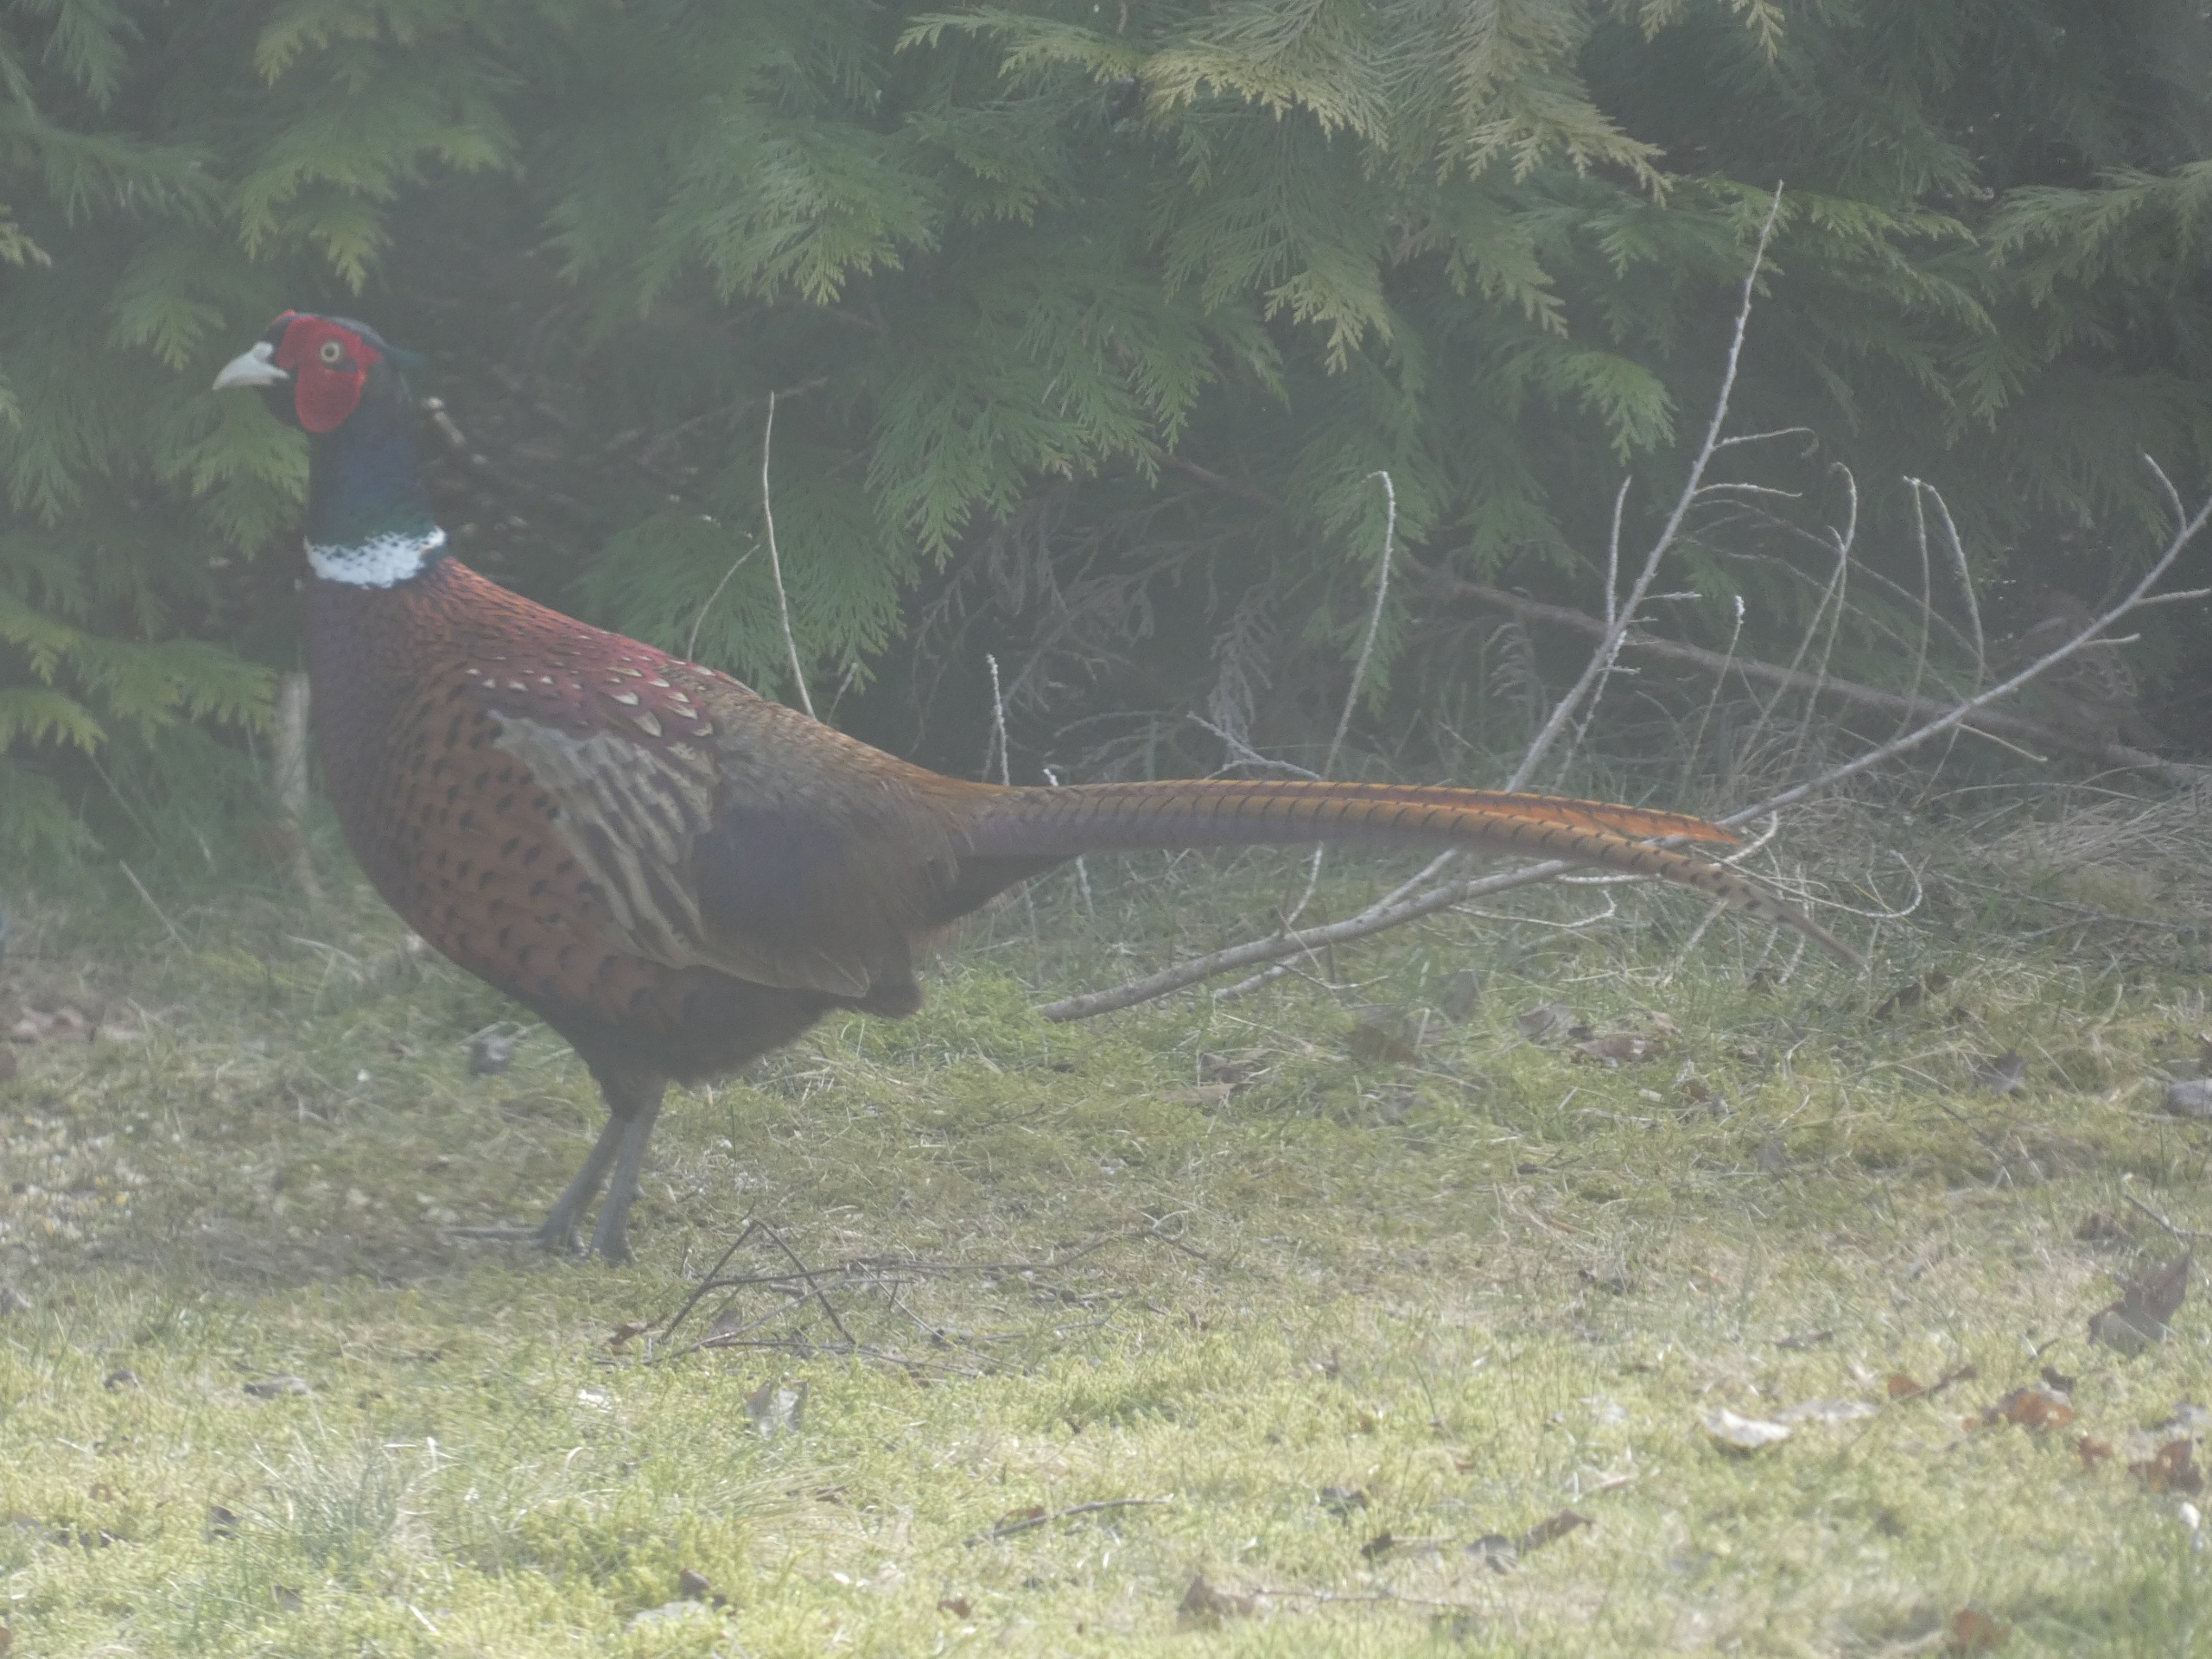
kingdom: Animalia
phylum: Chordata
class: Aves
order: Galliformes
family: Phasianidae
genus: Phasianus
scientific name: Phasianus colchicus
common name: Fasan
